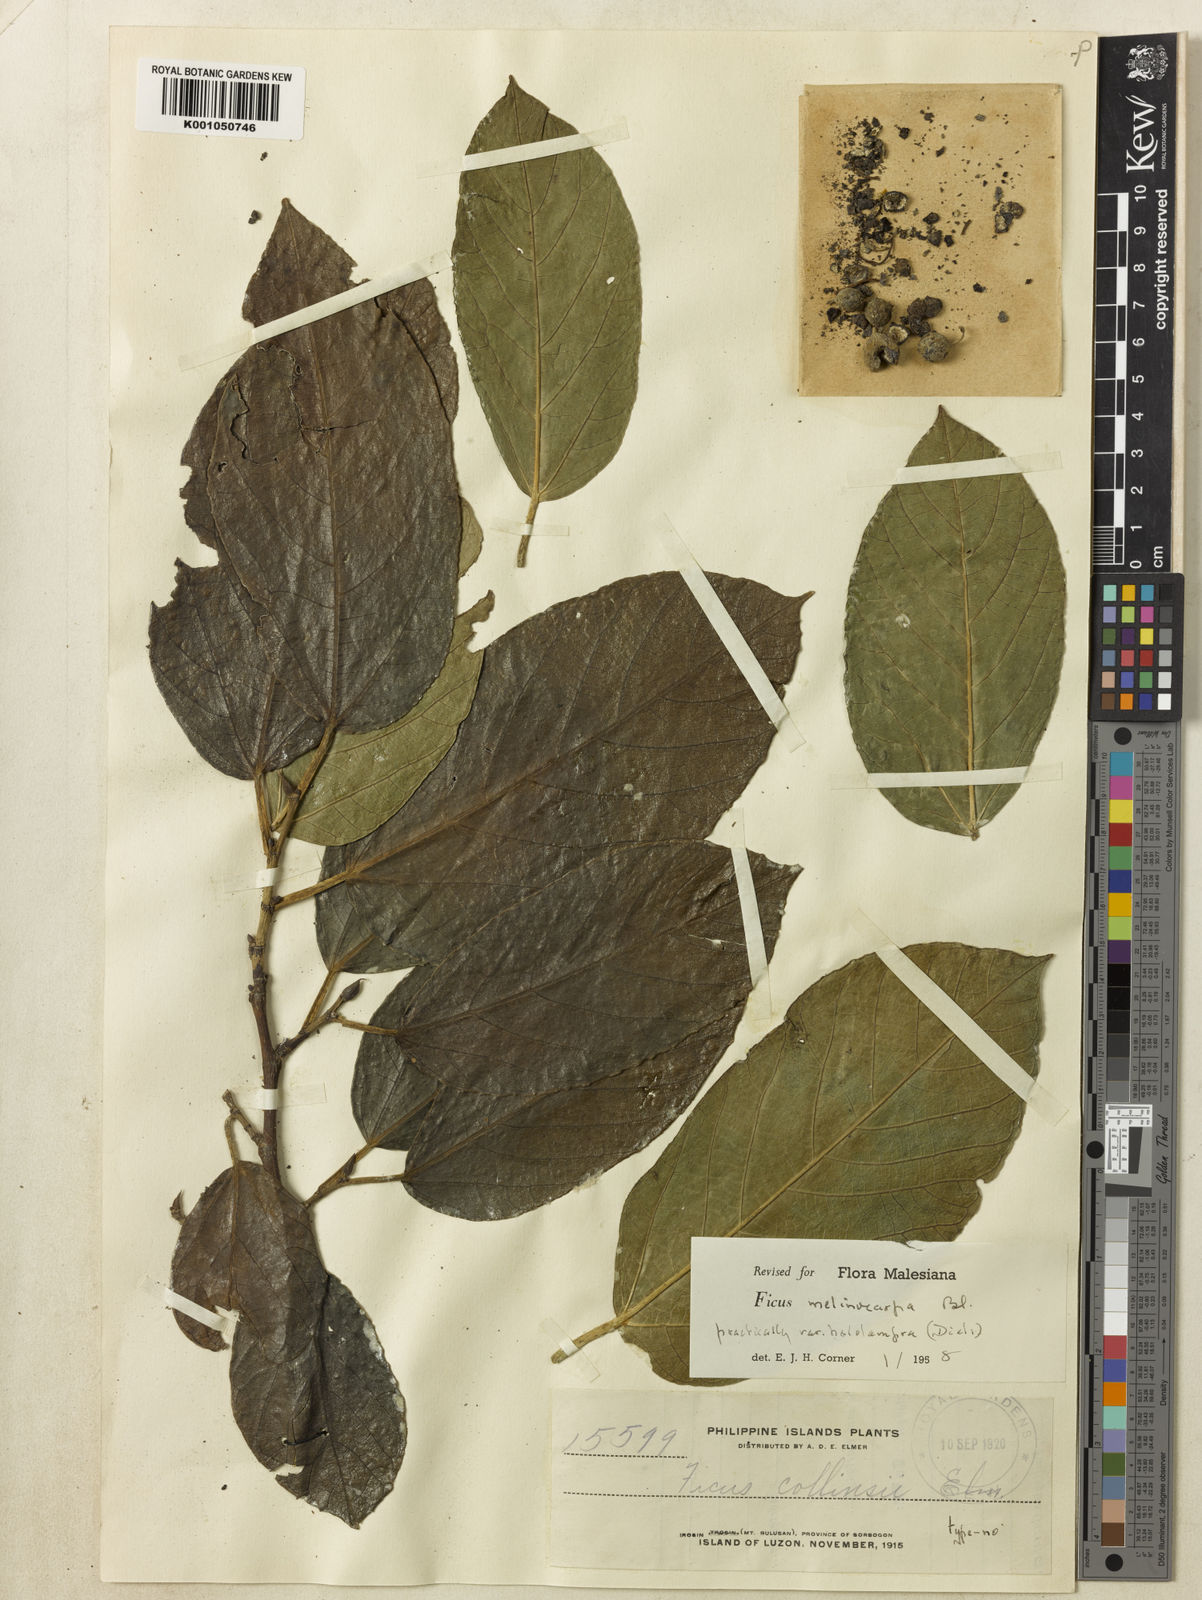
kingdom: Plantae
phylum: Tracheophyta
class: Magnoliopsida
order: Rosales
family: Moraceae
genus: Ficus
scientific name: Ficus melinocarpa
